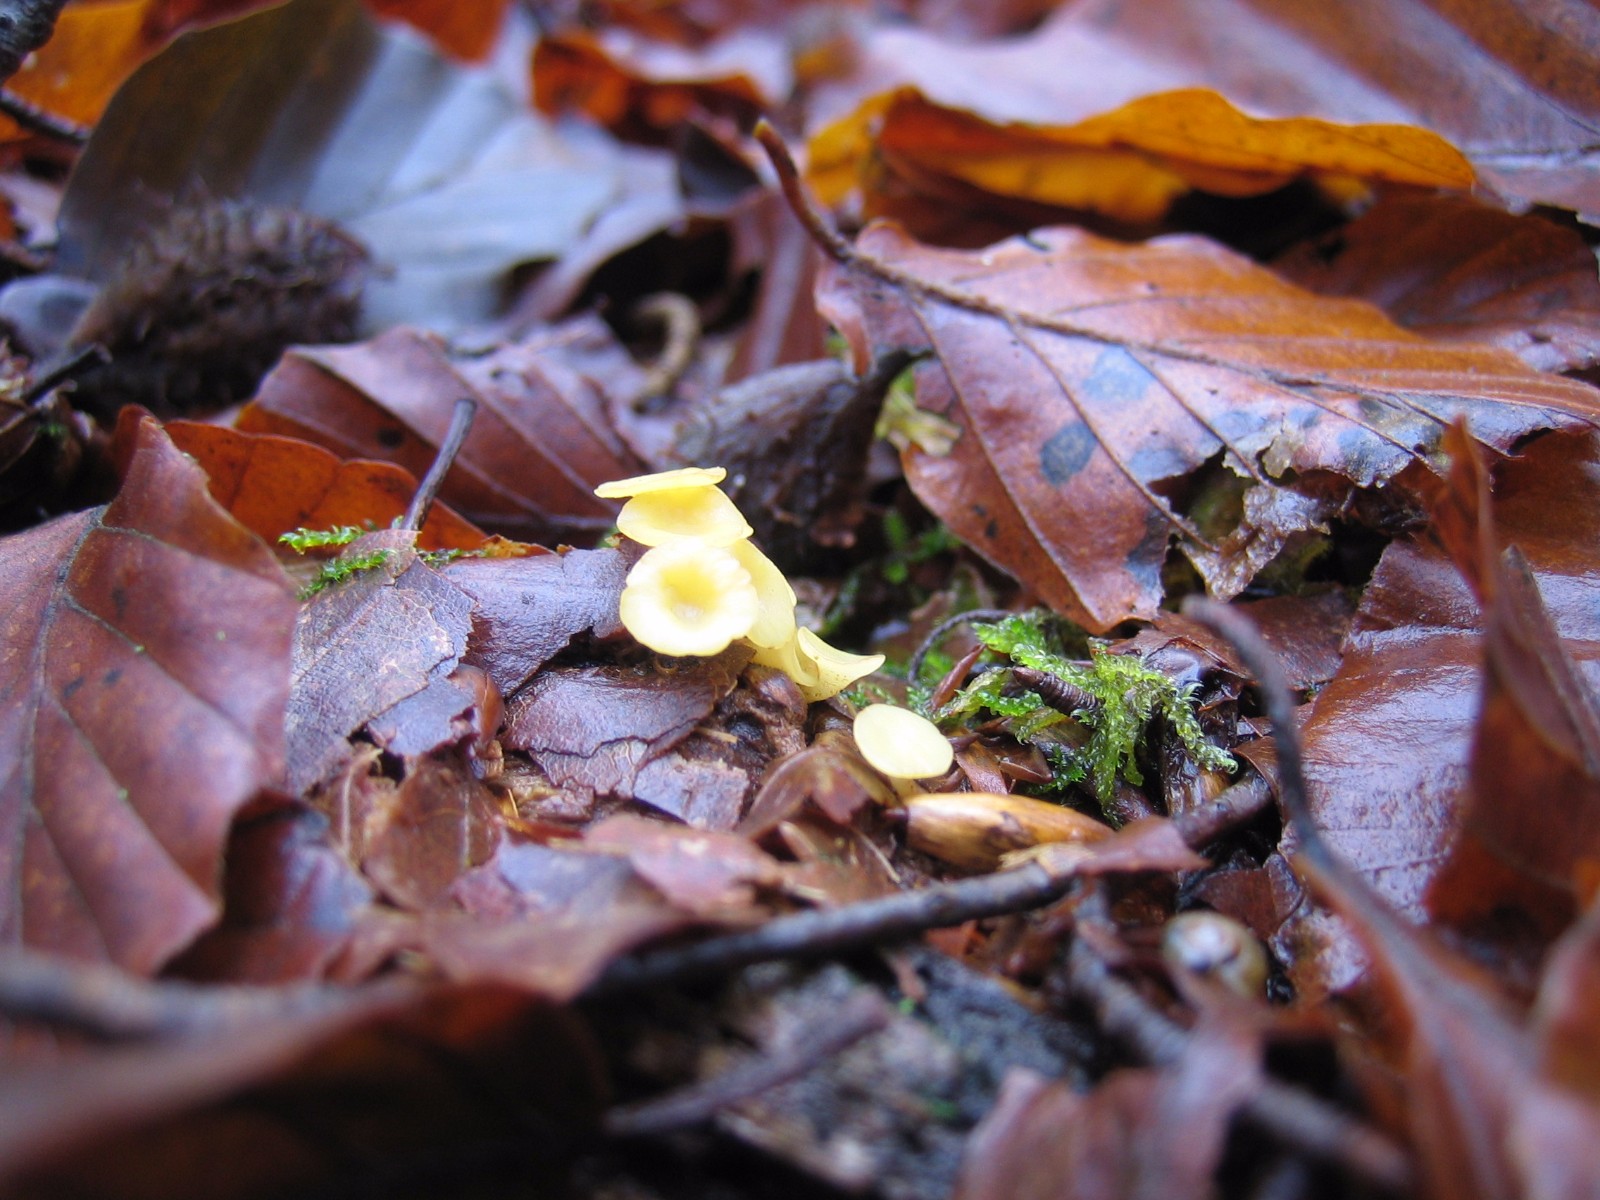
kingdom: Fungi
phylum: Ascomycota
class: Leotiomycetes
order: Helotiales
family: Helotiaceae
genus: Hymenoscyphus
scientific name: Hymenoscyphus serotinus
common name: krumsporet stilkskive
